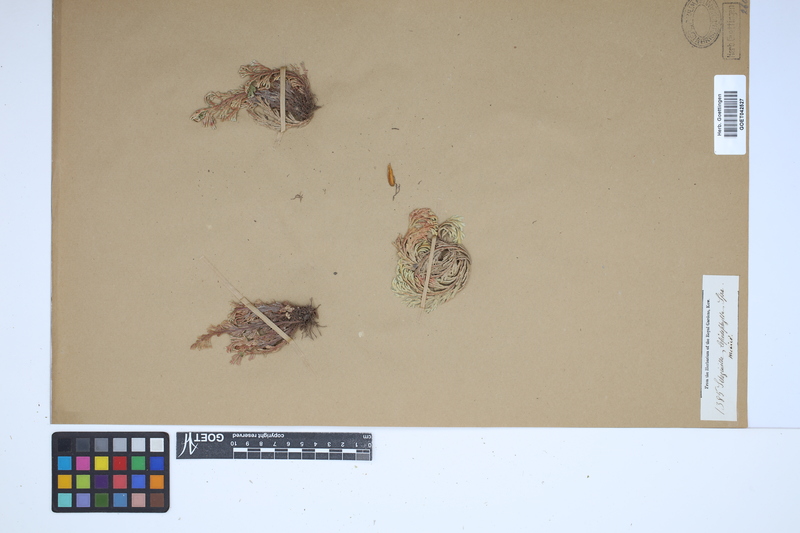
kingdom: Plantae
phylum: Tracheophyta
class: Lycopodiopsida
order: Selaginellales
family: Selaginellaceae
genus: Selaginella
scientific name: Selaginella lepidophylla
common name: Rose-of-jericho
